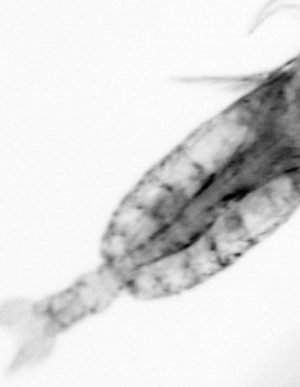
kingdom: Animalia
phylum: Arthropoda
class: Copepoda
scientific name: Copepoda
